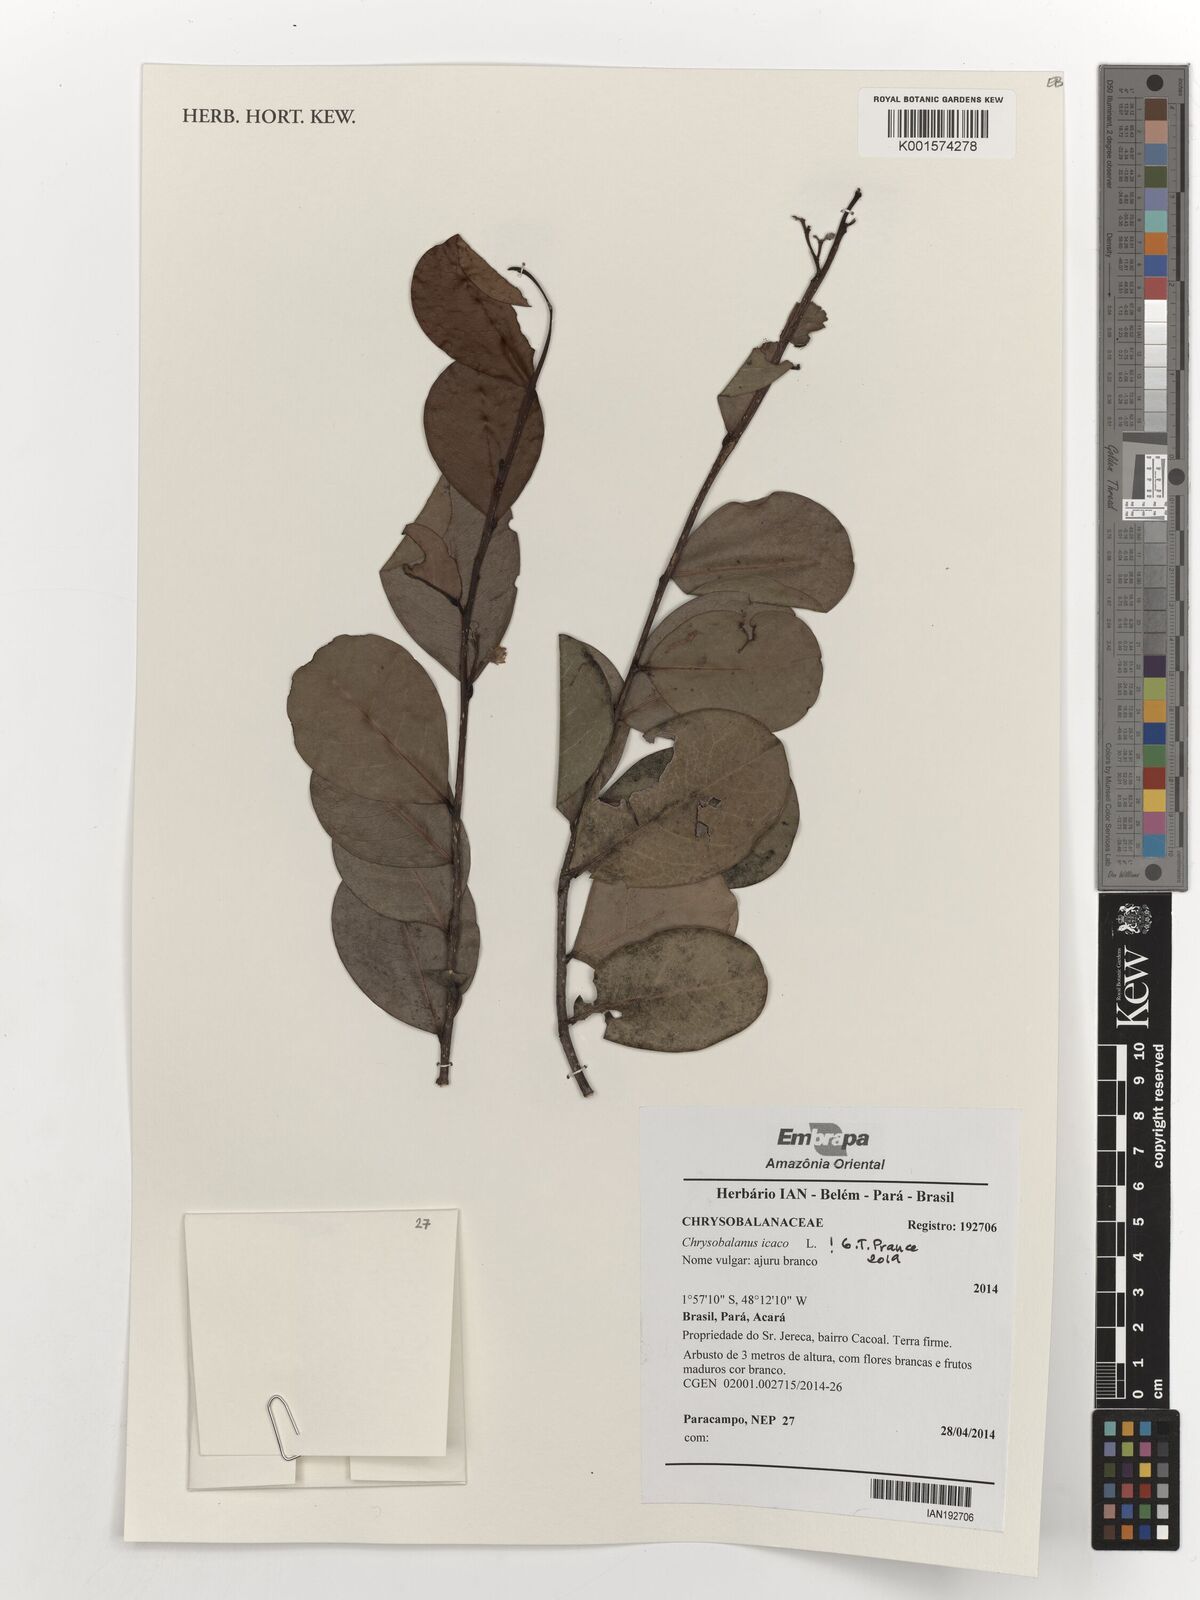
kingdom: Plantae
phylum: Tracheophyta
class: Magnoliopsida
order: Malpighiales
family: Chrysobalanaceae
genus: Chrysobalanus
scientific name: Chrysobalanus icaco
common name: Coco plum
